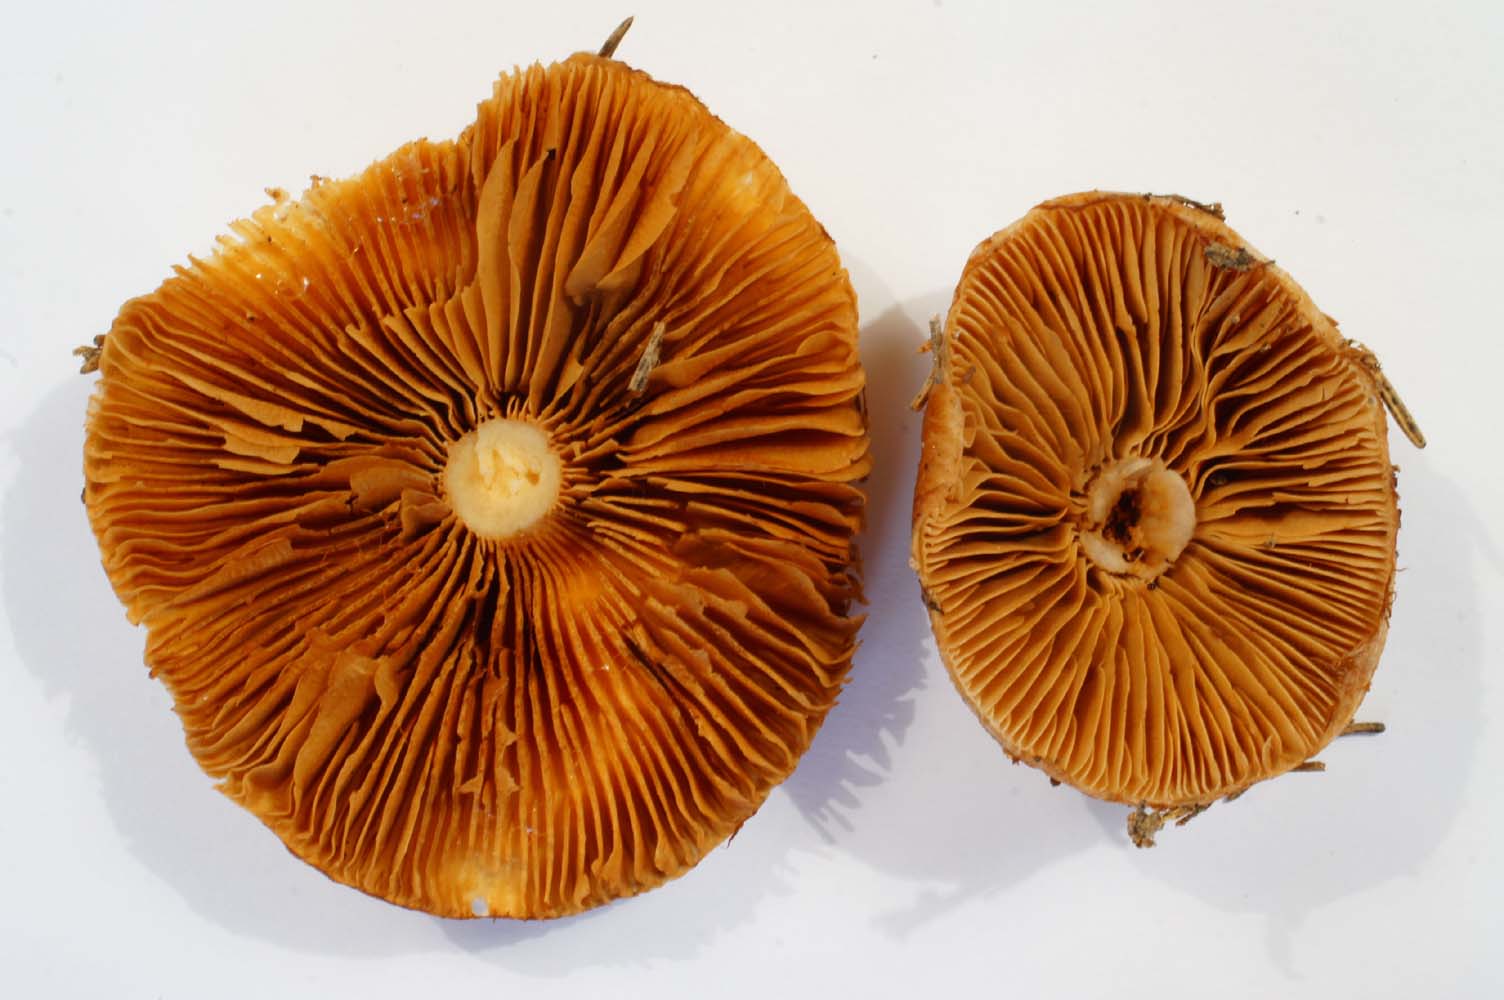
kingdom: Fungi
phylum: Basidiomycota
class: Agaricomycetes
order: Agaricales
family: Cortinariaceae
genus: Cortinarius
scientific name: Cortinarius collinitus
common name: spættet slørhat
